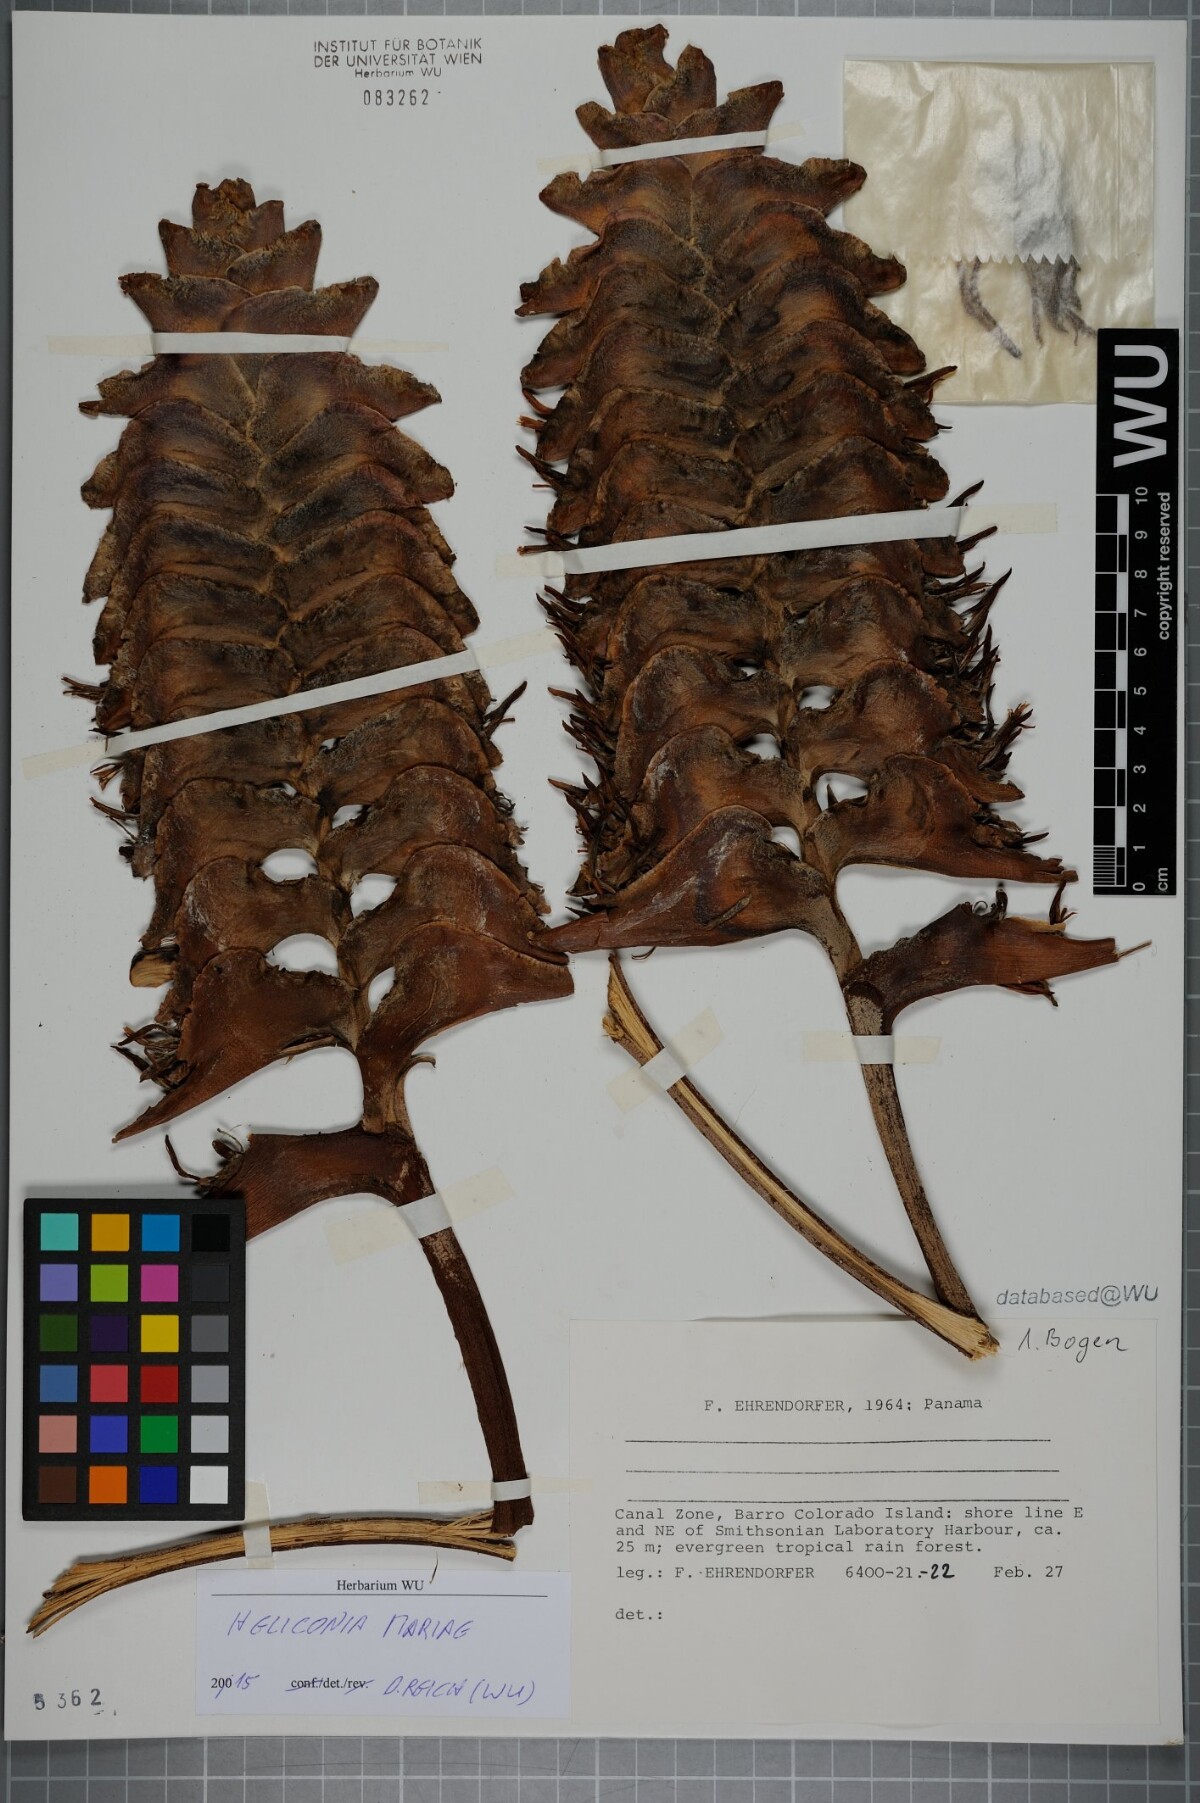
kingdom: Plantae
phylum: Tracheophyta
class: Liliopsida
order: Zingiberales
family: Heliconiaceae
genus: Heliconia
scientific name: Heliconia mariae
